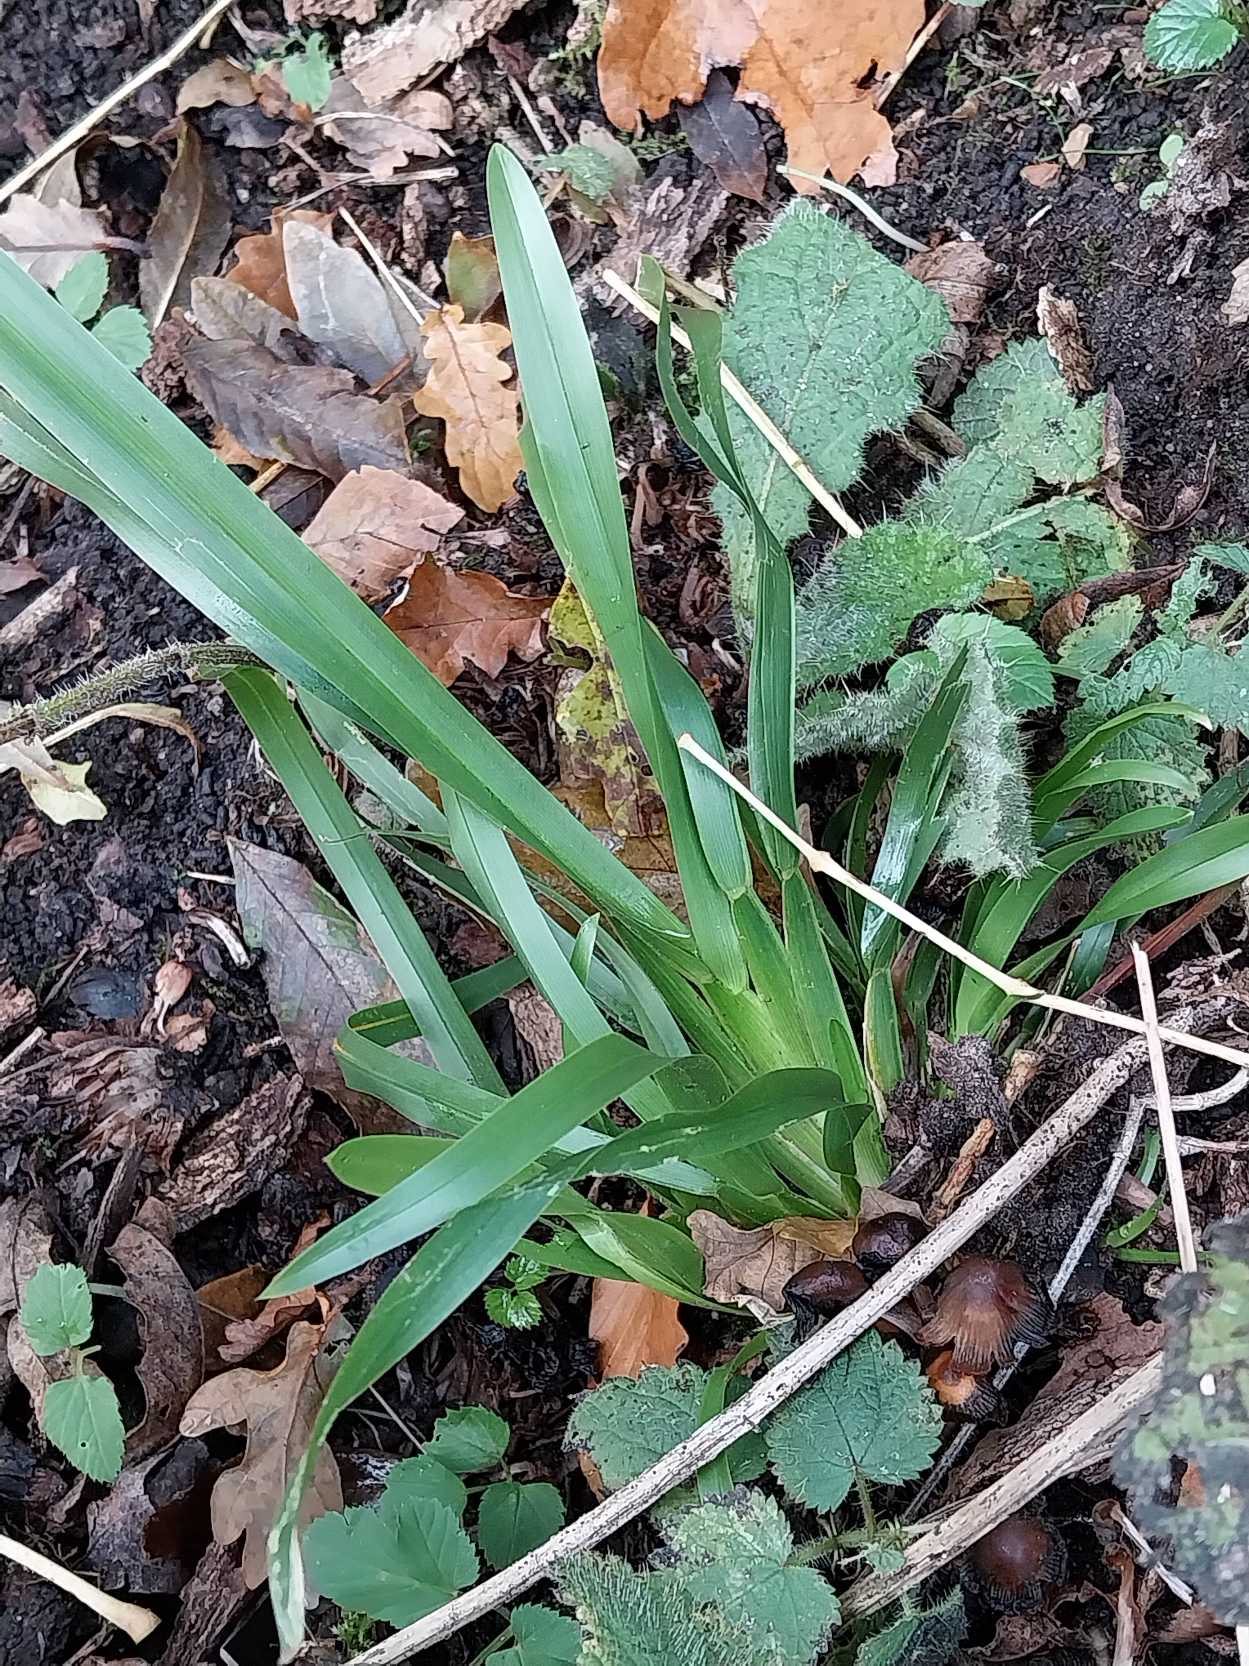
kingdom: Plantae
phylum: Tracheophyta
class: Liliopsida
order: Poales
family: Poaceae
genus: Poa
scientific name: Poa chaixii
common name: Sudetisk rapgræs
